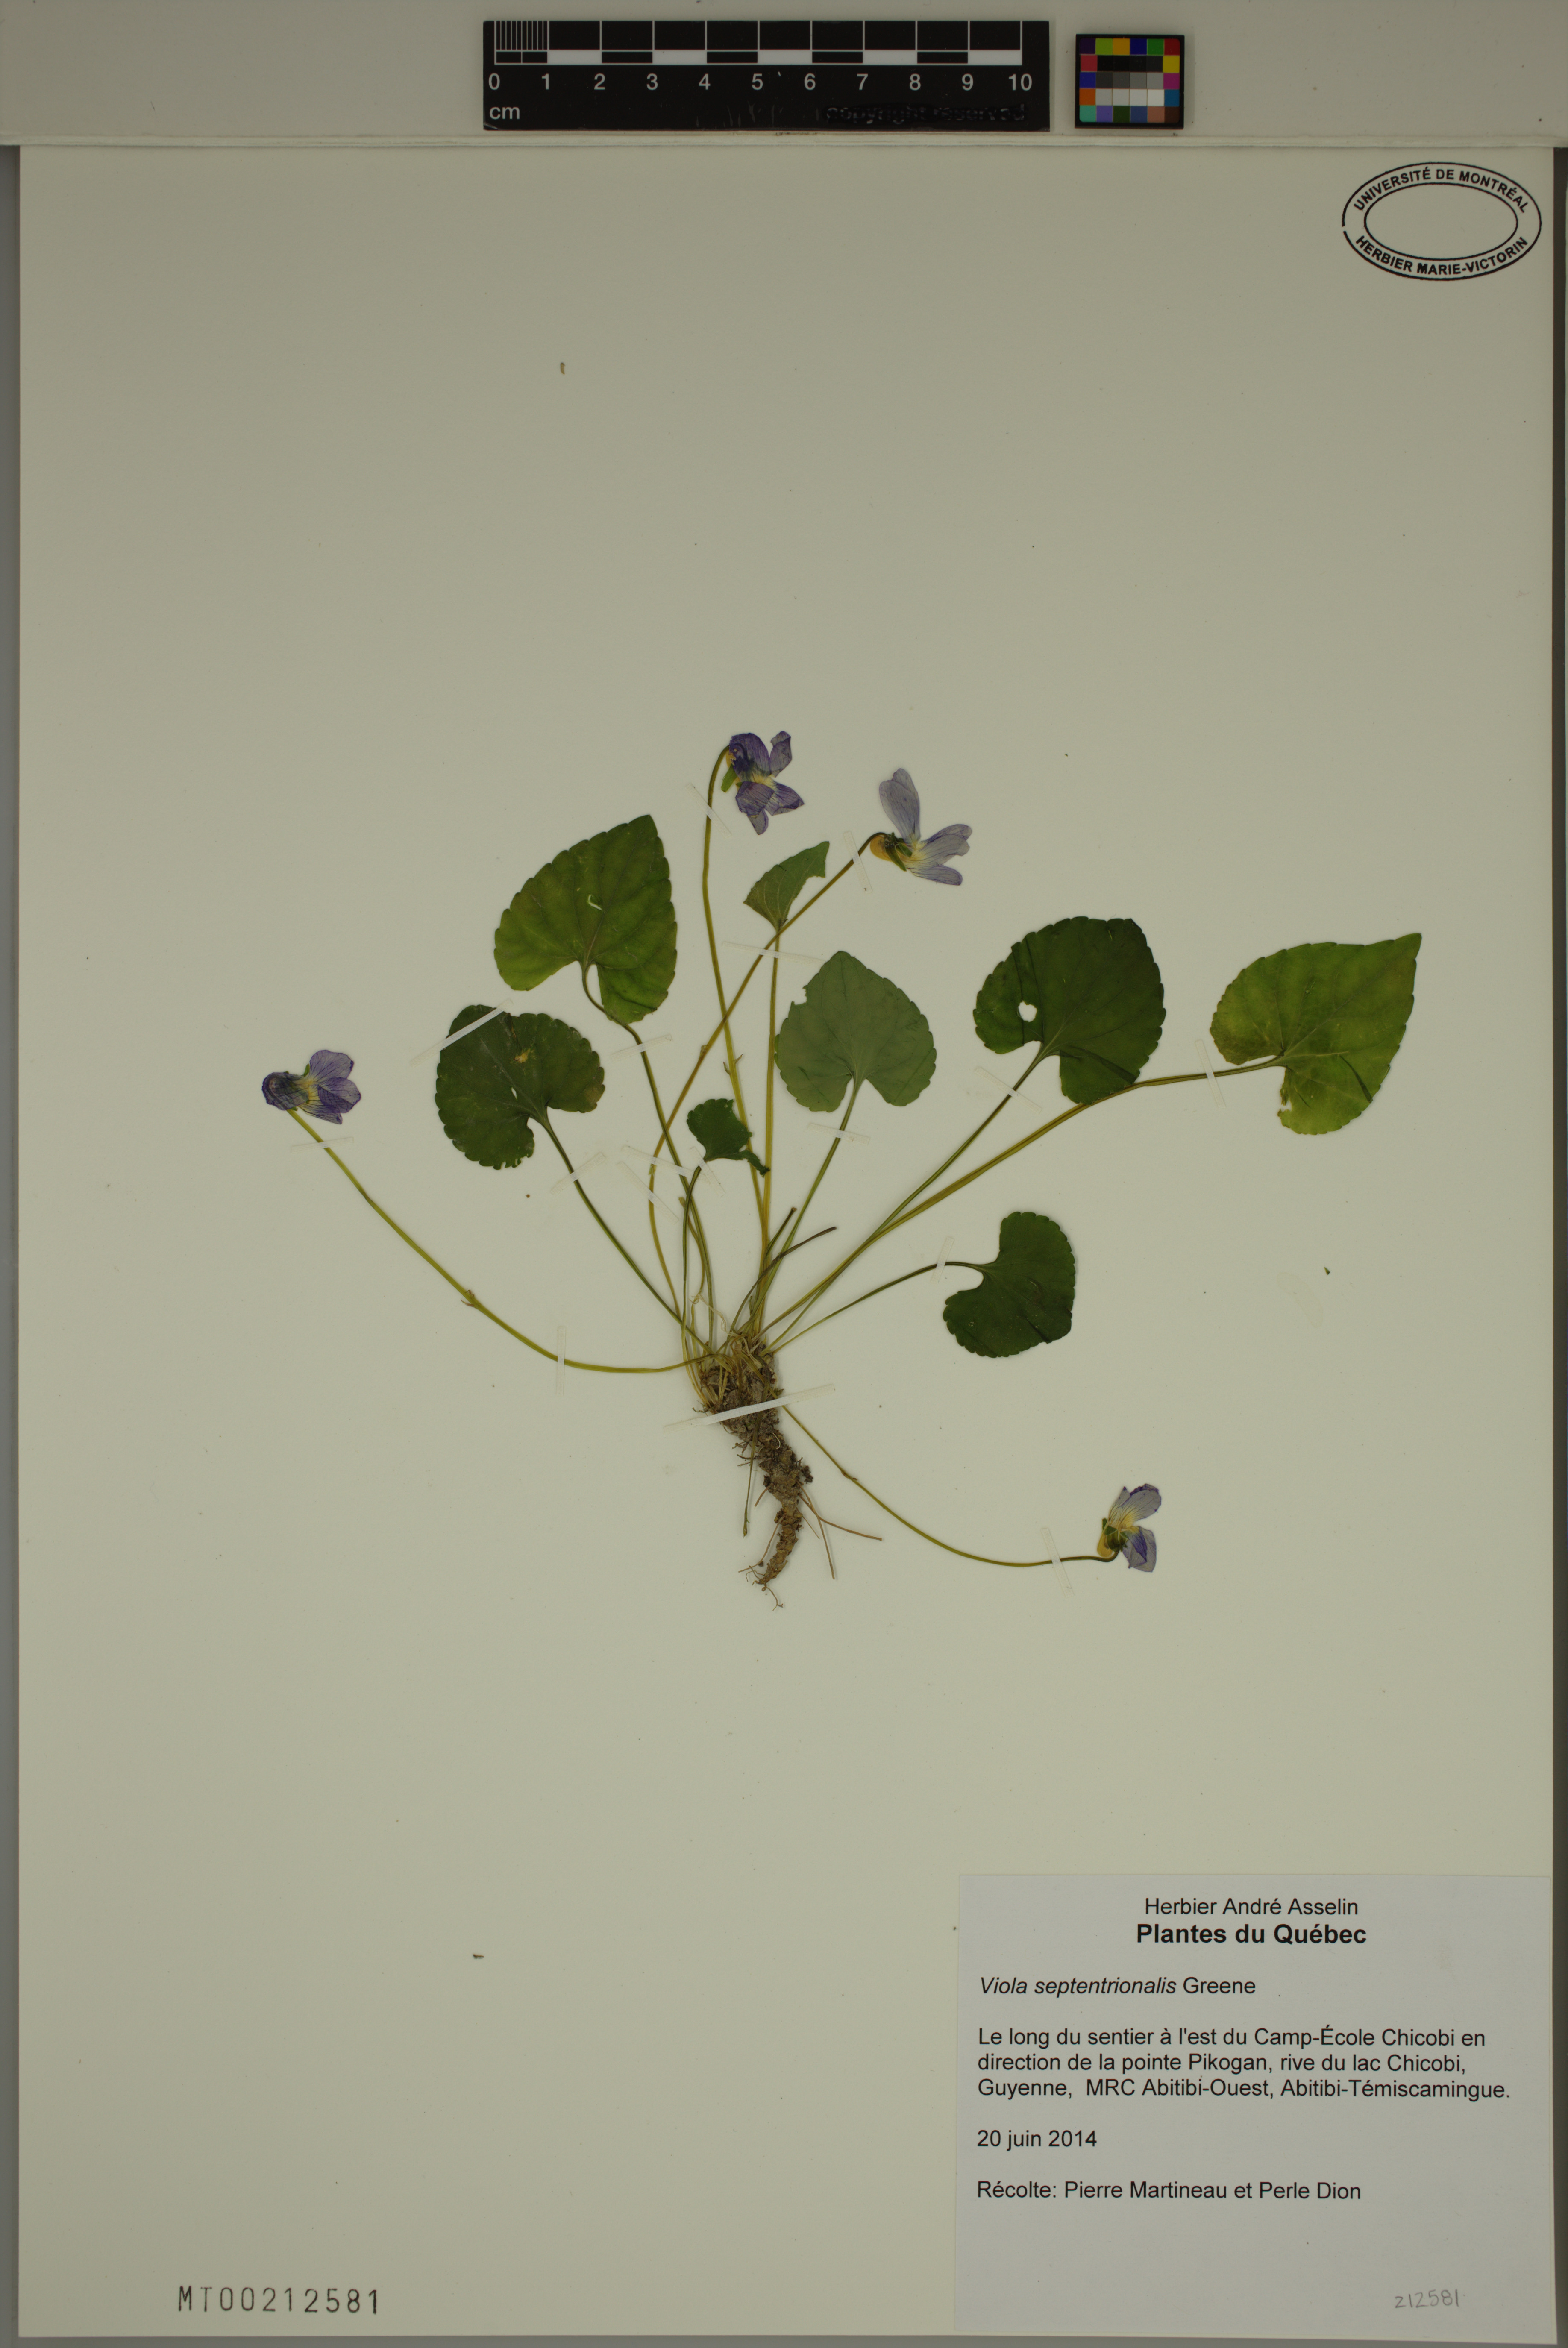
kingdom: Plantae
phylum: Tracheophyta
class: Magnoliopsida
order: Malpighiales
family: Violaceae
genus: Viola
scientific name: Viola sororia
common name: Dooryard violet
